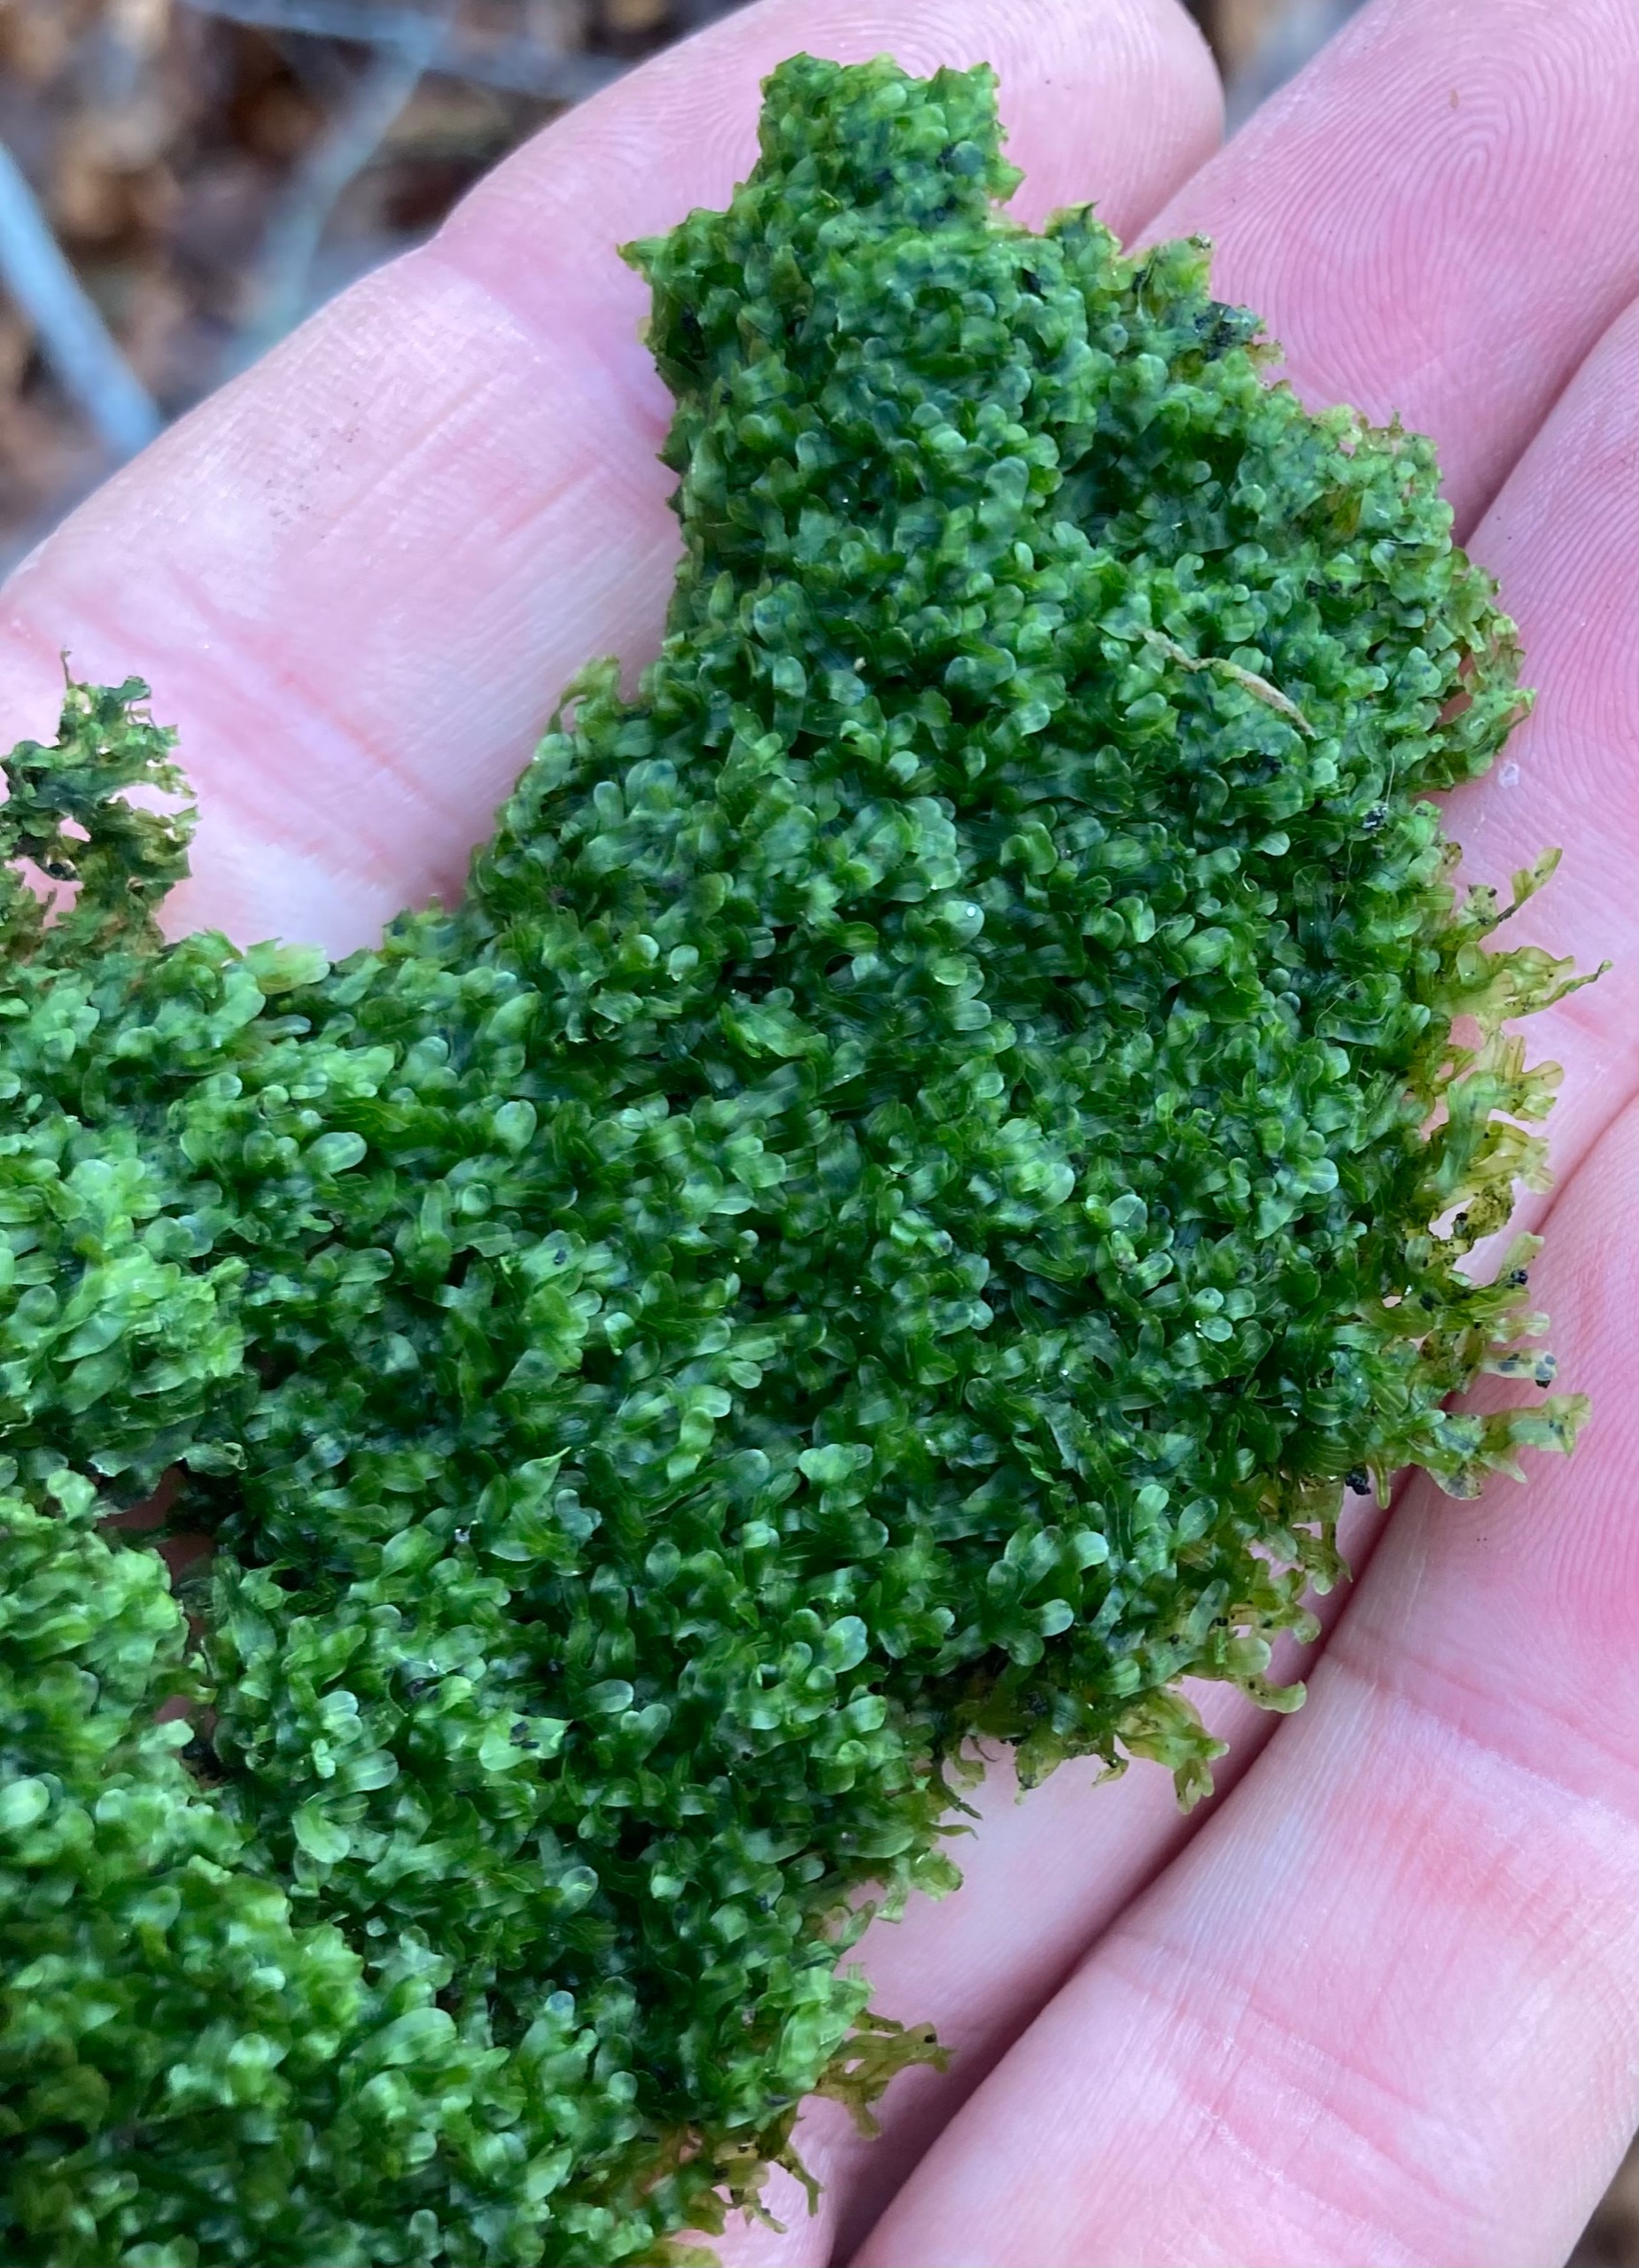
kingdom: Plantae
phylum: Marchantiophyta
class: Jungermanniopsida
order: Metzgeriales
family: Metzgeriaceae
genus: Metzgeria
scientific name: Metzgeria furcata
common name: Almindelig gaffelløv
